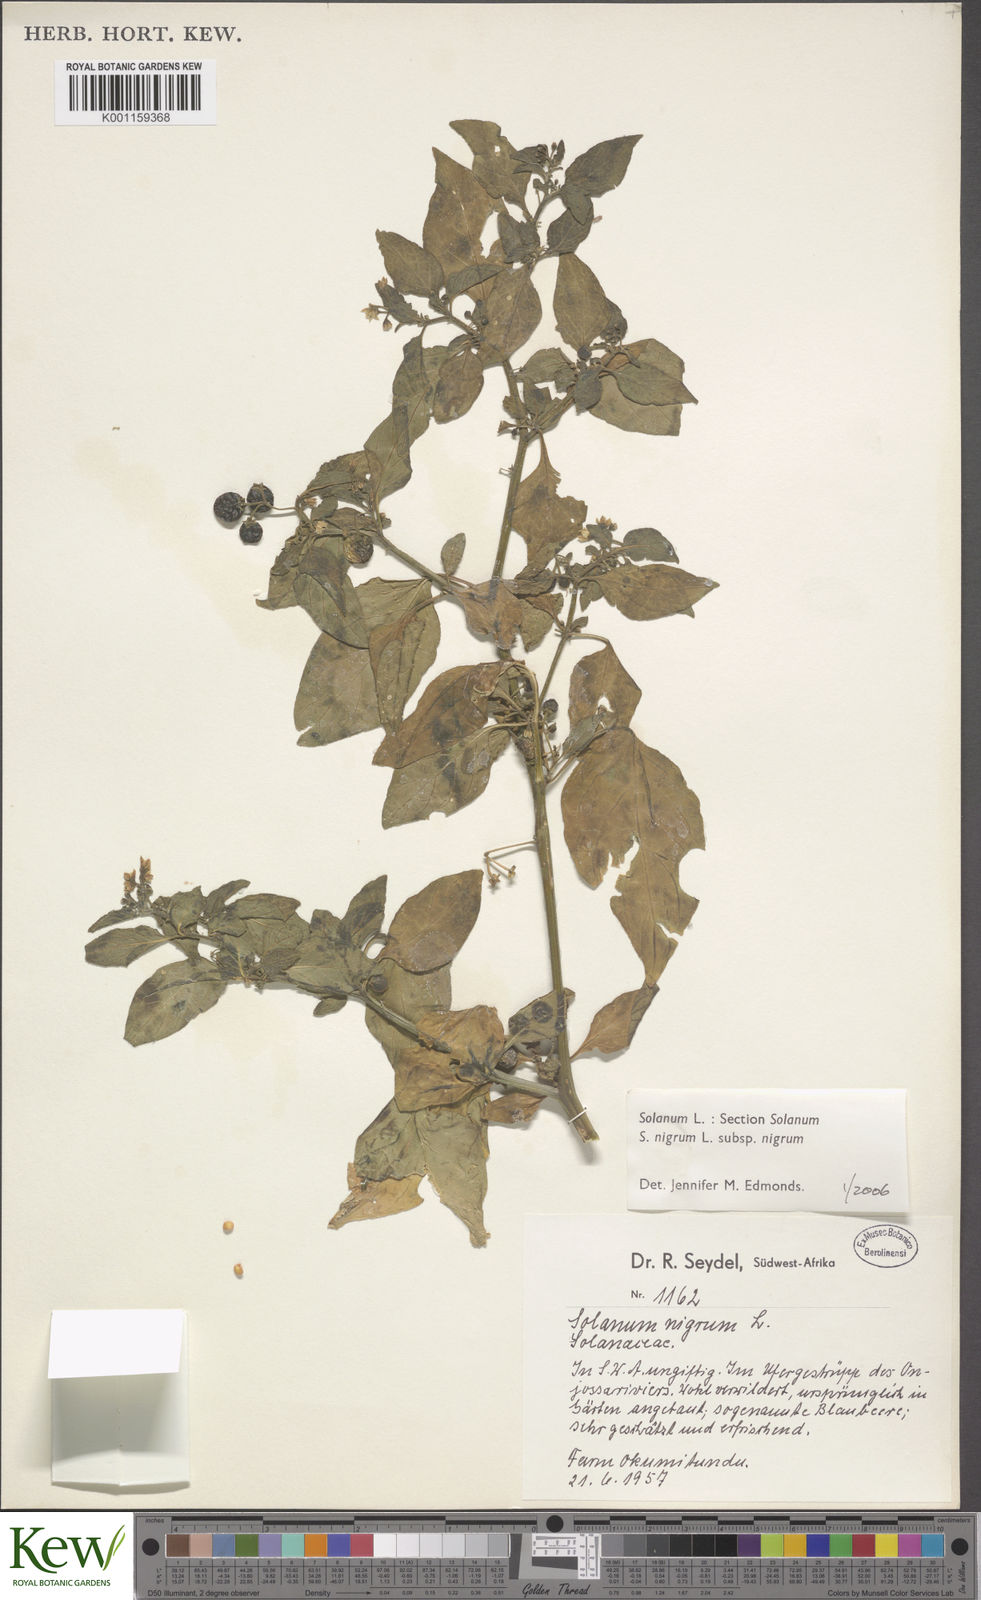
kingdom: Plantae
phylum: Tracheophyta
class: Magnoliopsida
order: Solanales
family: Solanaceae
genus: Solanum
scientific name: Solanum scabrum
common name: Garden-huckleberry
